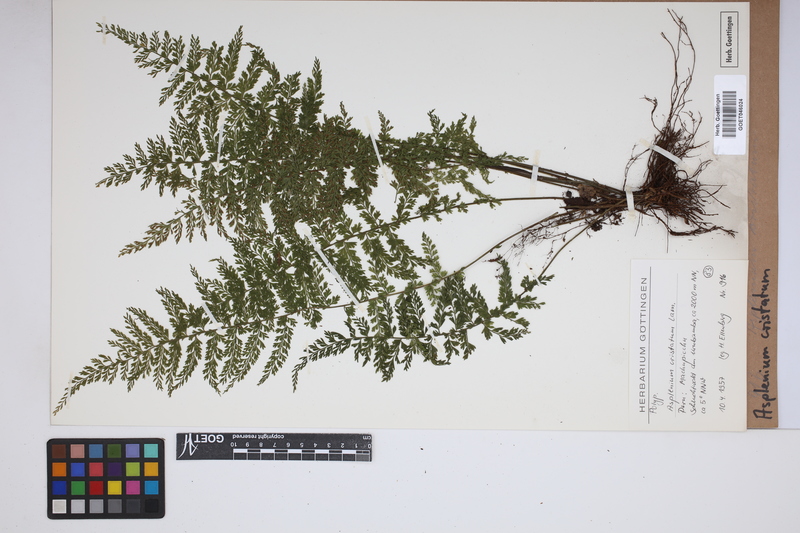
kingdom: Plantae
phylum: Tracheophyta
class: Polypodiopsida
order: Polypodiales
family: Aspleniaceae
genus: Asplenium
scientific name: Asplenium cristatum
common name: Parsley spleenwort
